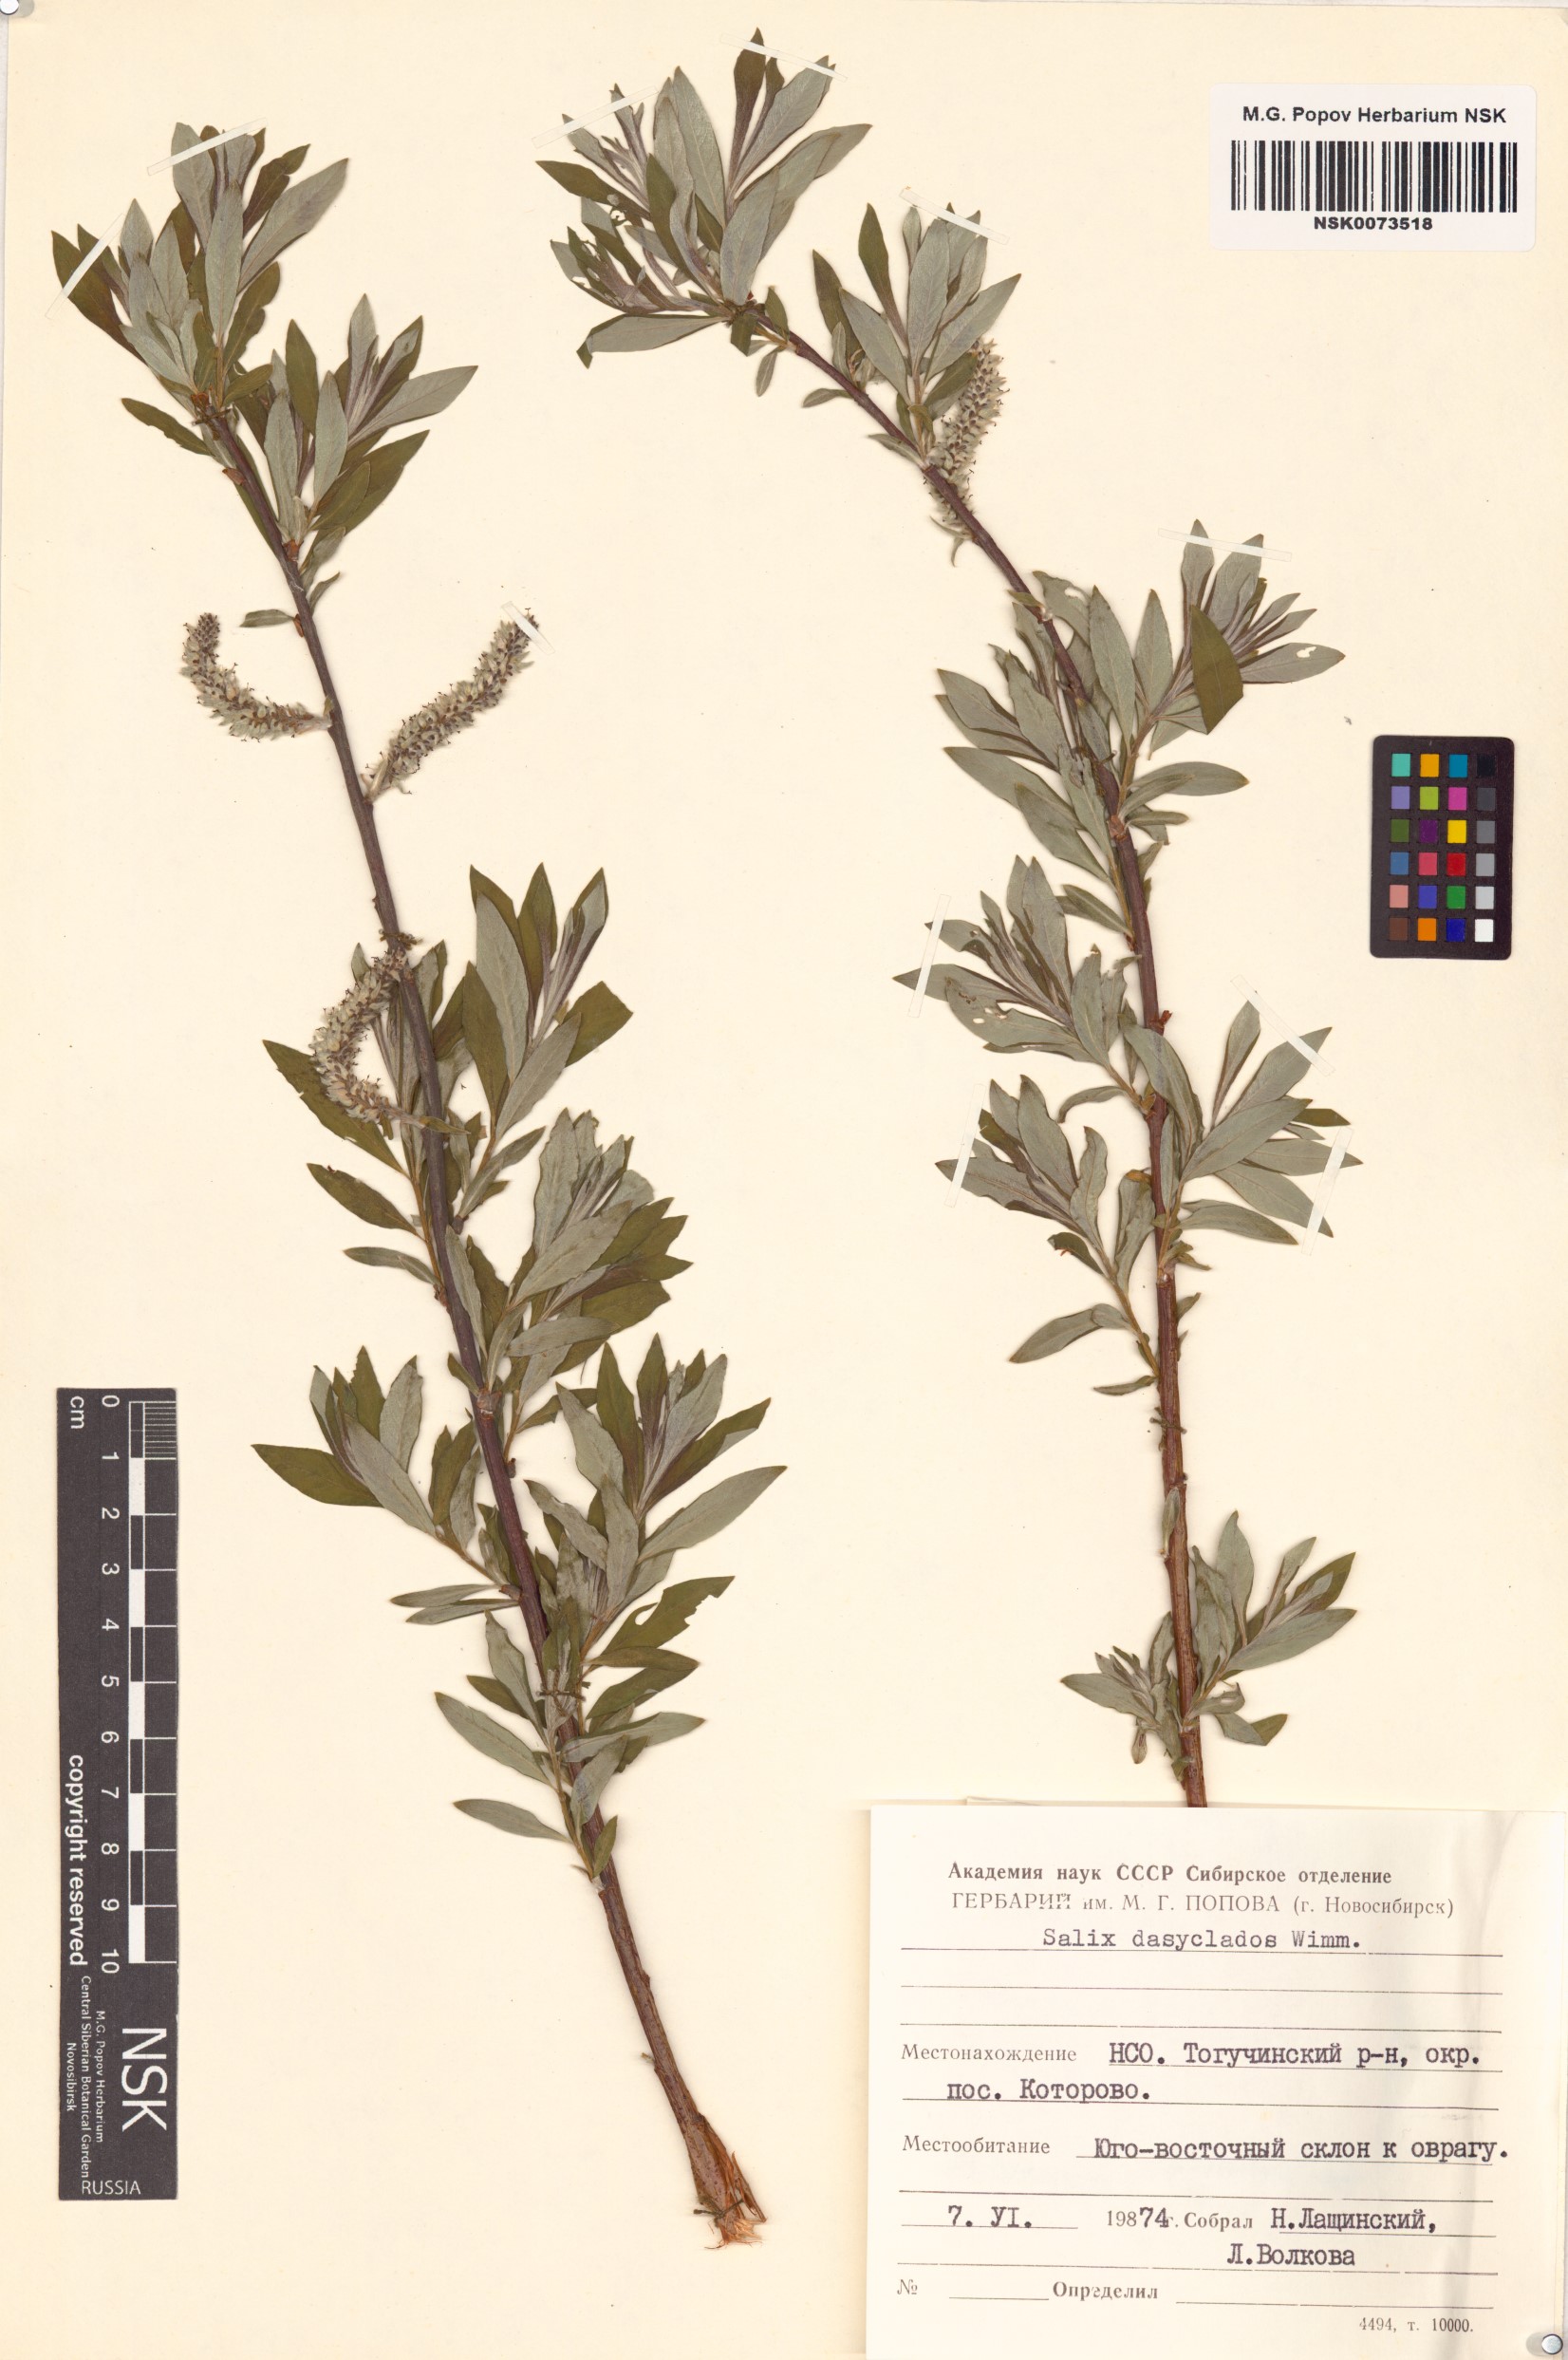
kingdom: Plantae
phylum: Tracheophyta
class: Magnoliopsida
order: Malpighiales
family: Salicaceae
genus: Salix
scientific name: Salix gmelinii
